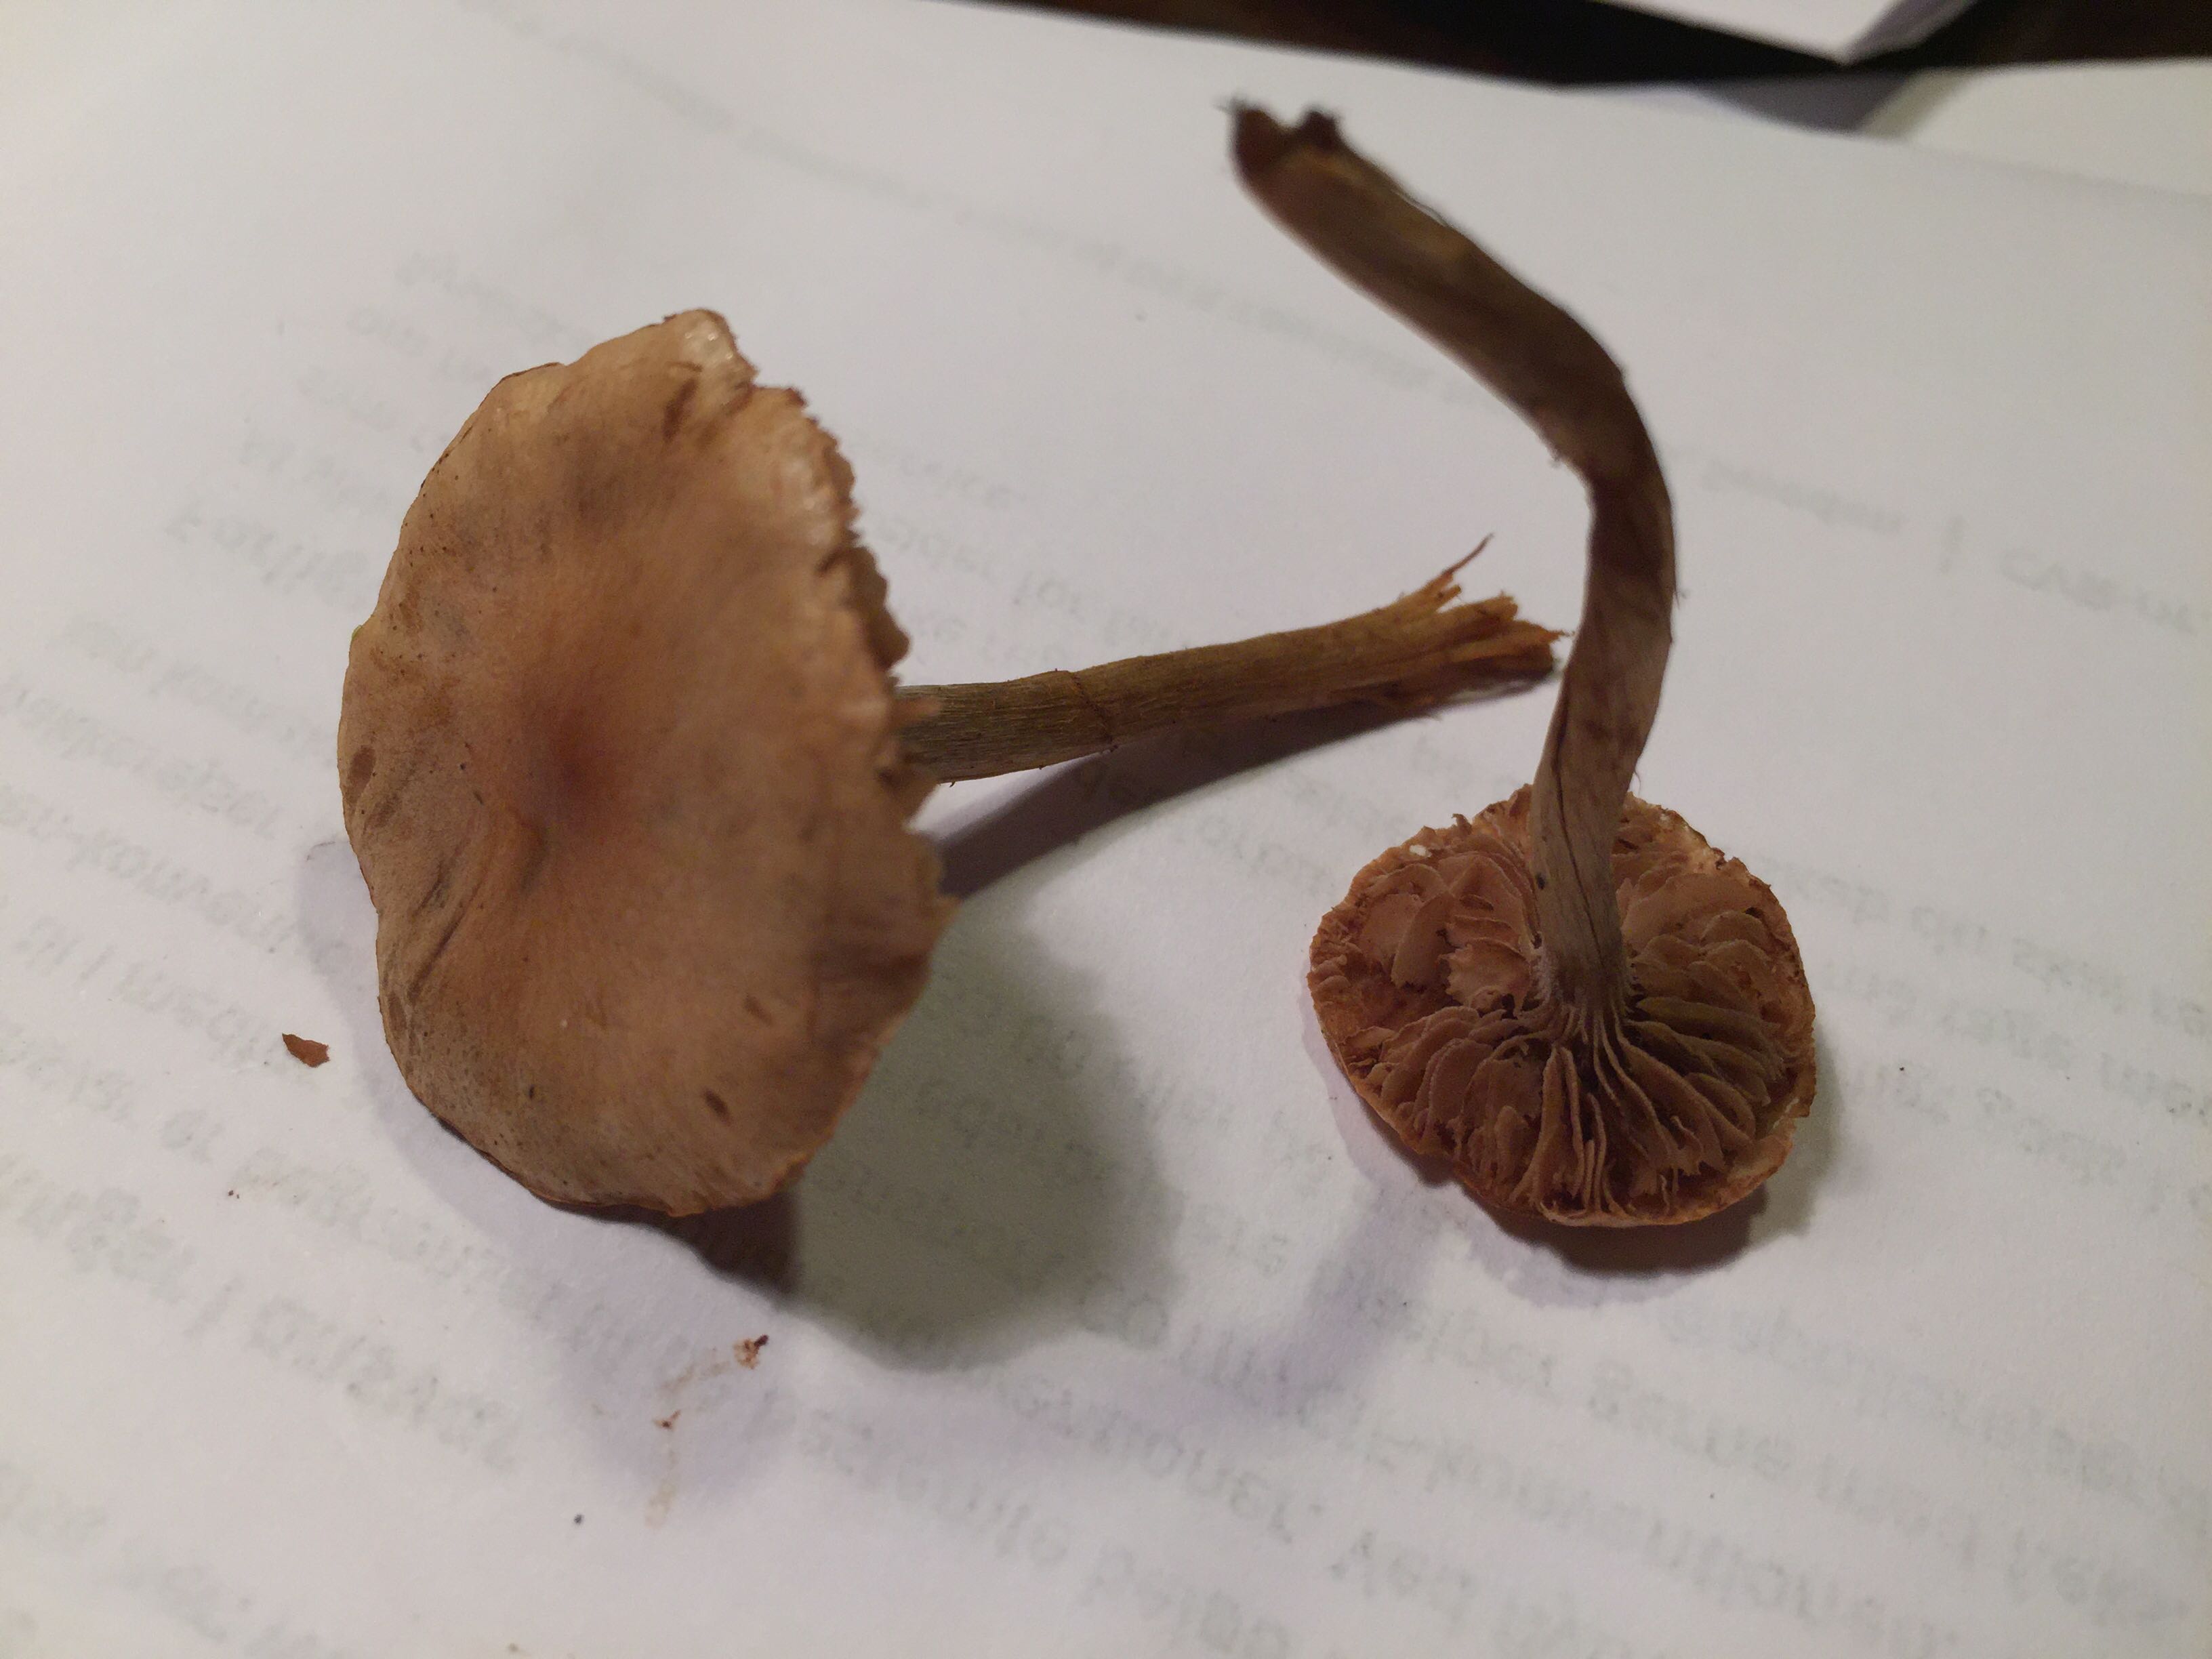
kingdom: Fungi
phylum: Basidiomycota
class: Agaricomycetes
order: Agaricales
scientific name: Agaricales
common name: champignonordenen
